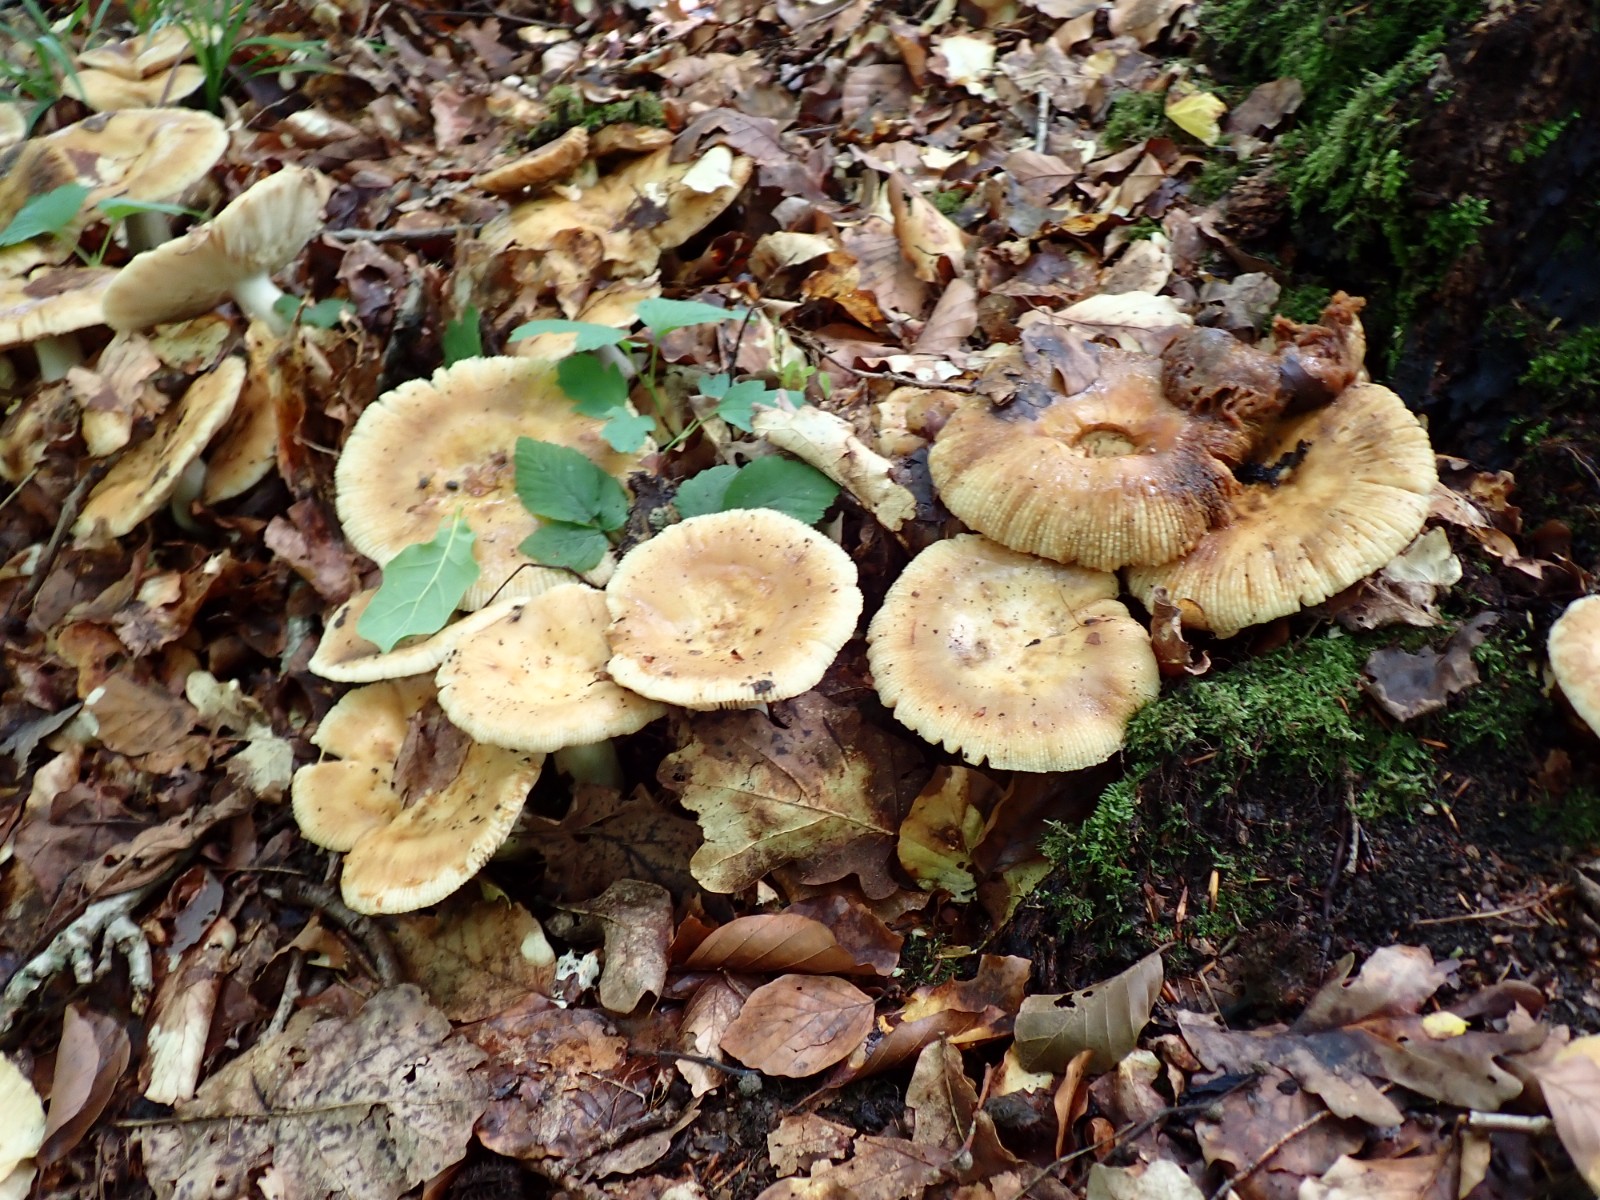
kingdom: Fungi
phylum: Basidiomycota
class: Agaricomycetes
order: Russulales
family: Russulaceae
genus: Russula
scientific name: Russula foetens
